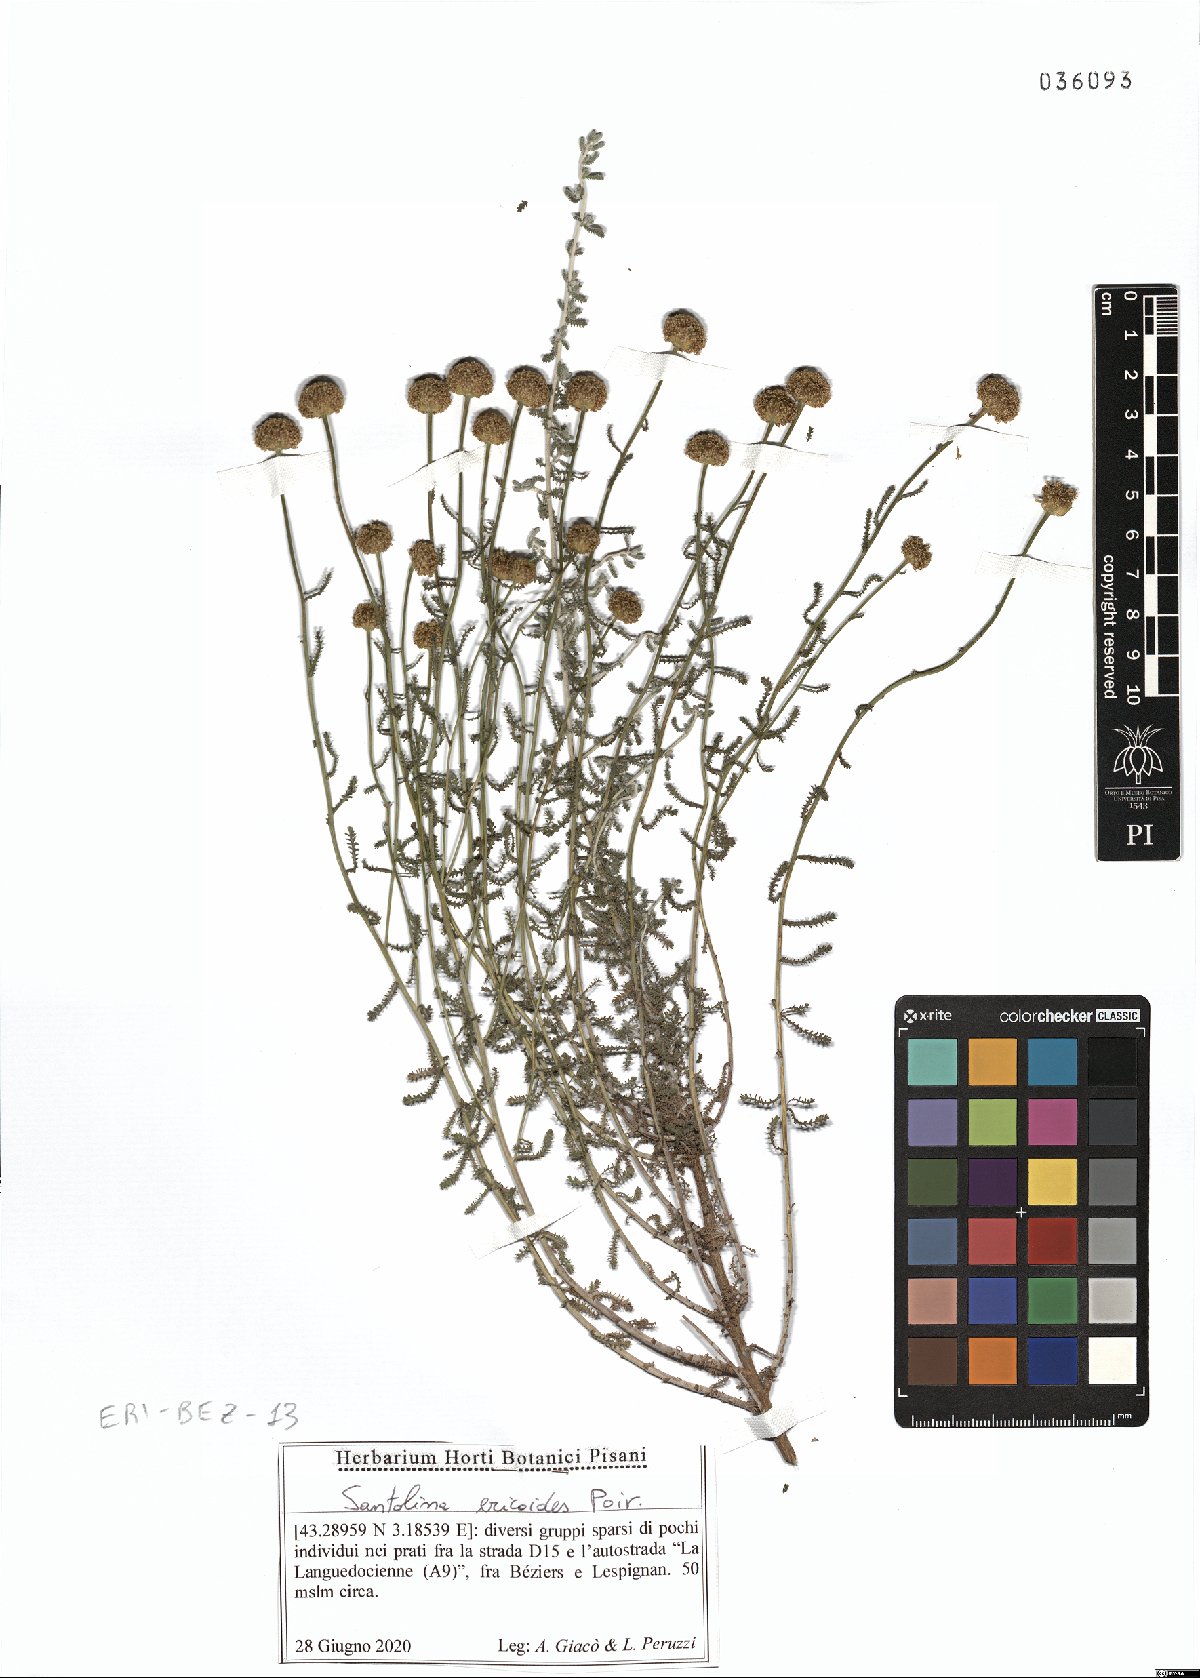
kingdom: Plantae
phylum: Tracheophyta
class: Magnoliopsida
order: Asterales
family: Asteraceae
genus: Santolina
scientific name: Santolina ericoides
